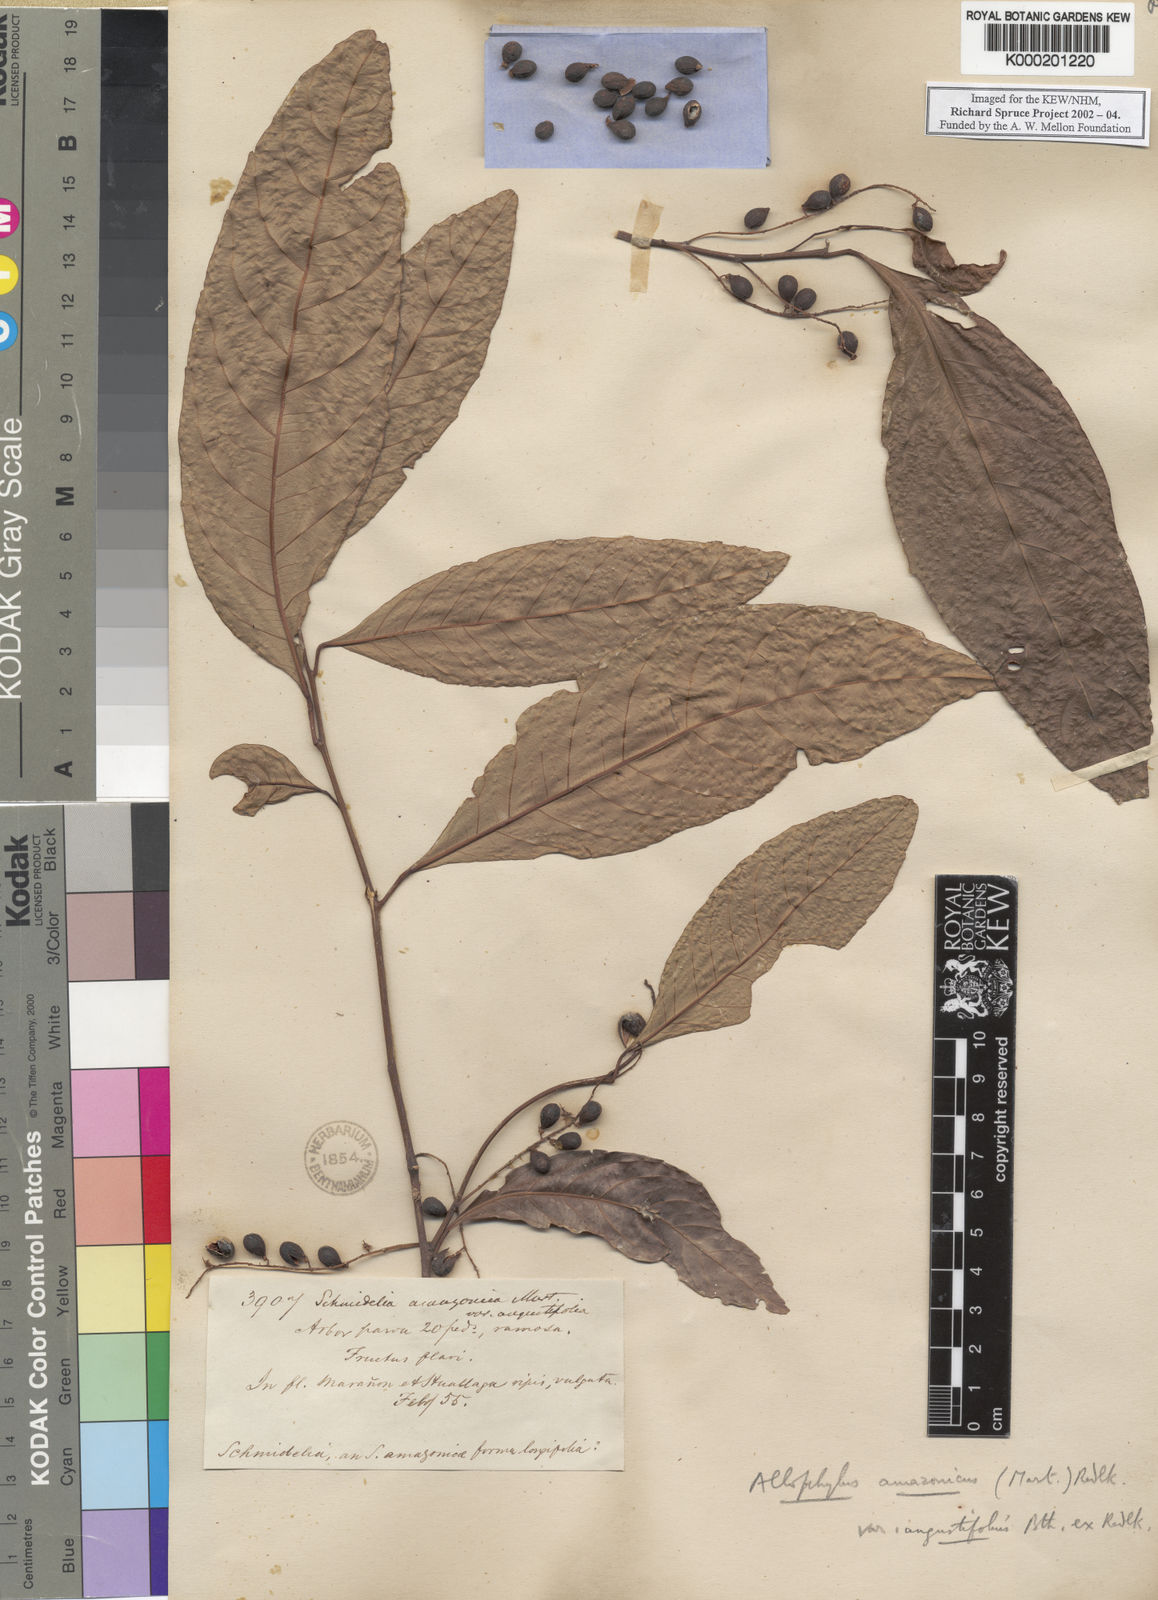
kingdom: Plantae
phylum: Tracheophyta
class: Magnoliopsida
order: Sapindales
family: Sapindaceae
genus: Allophylus
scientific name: Allophylus amazonicus
